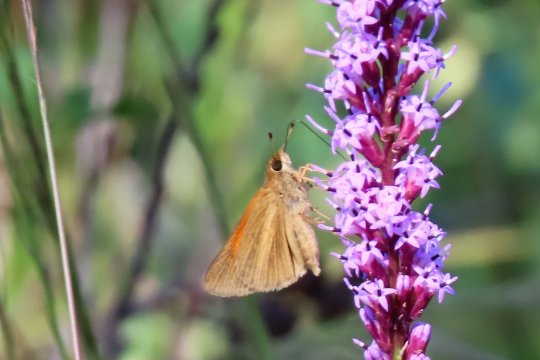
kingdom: Animalia
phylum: Arthropoda
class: Insecta
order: Lepidoptera
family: Hesperiidae
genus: Poanes
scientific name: Poanes aaroni
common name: Aaron's Skipper
